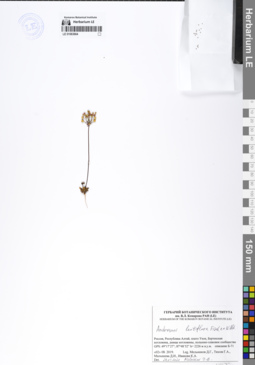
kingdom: Plantae
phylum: Tracheophyta
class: Magnoliopsida
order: Ericales
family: Primulaceae
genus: Androsace
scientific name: Androsace lactiflora
